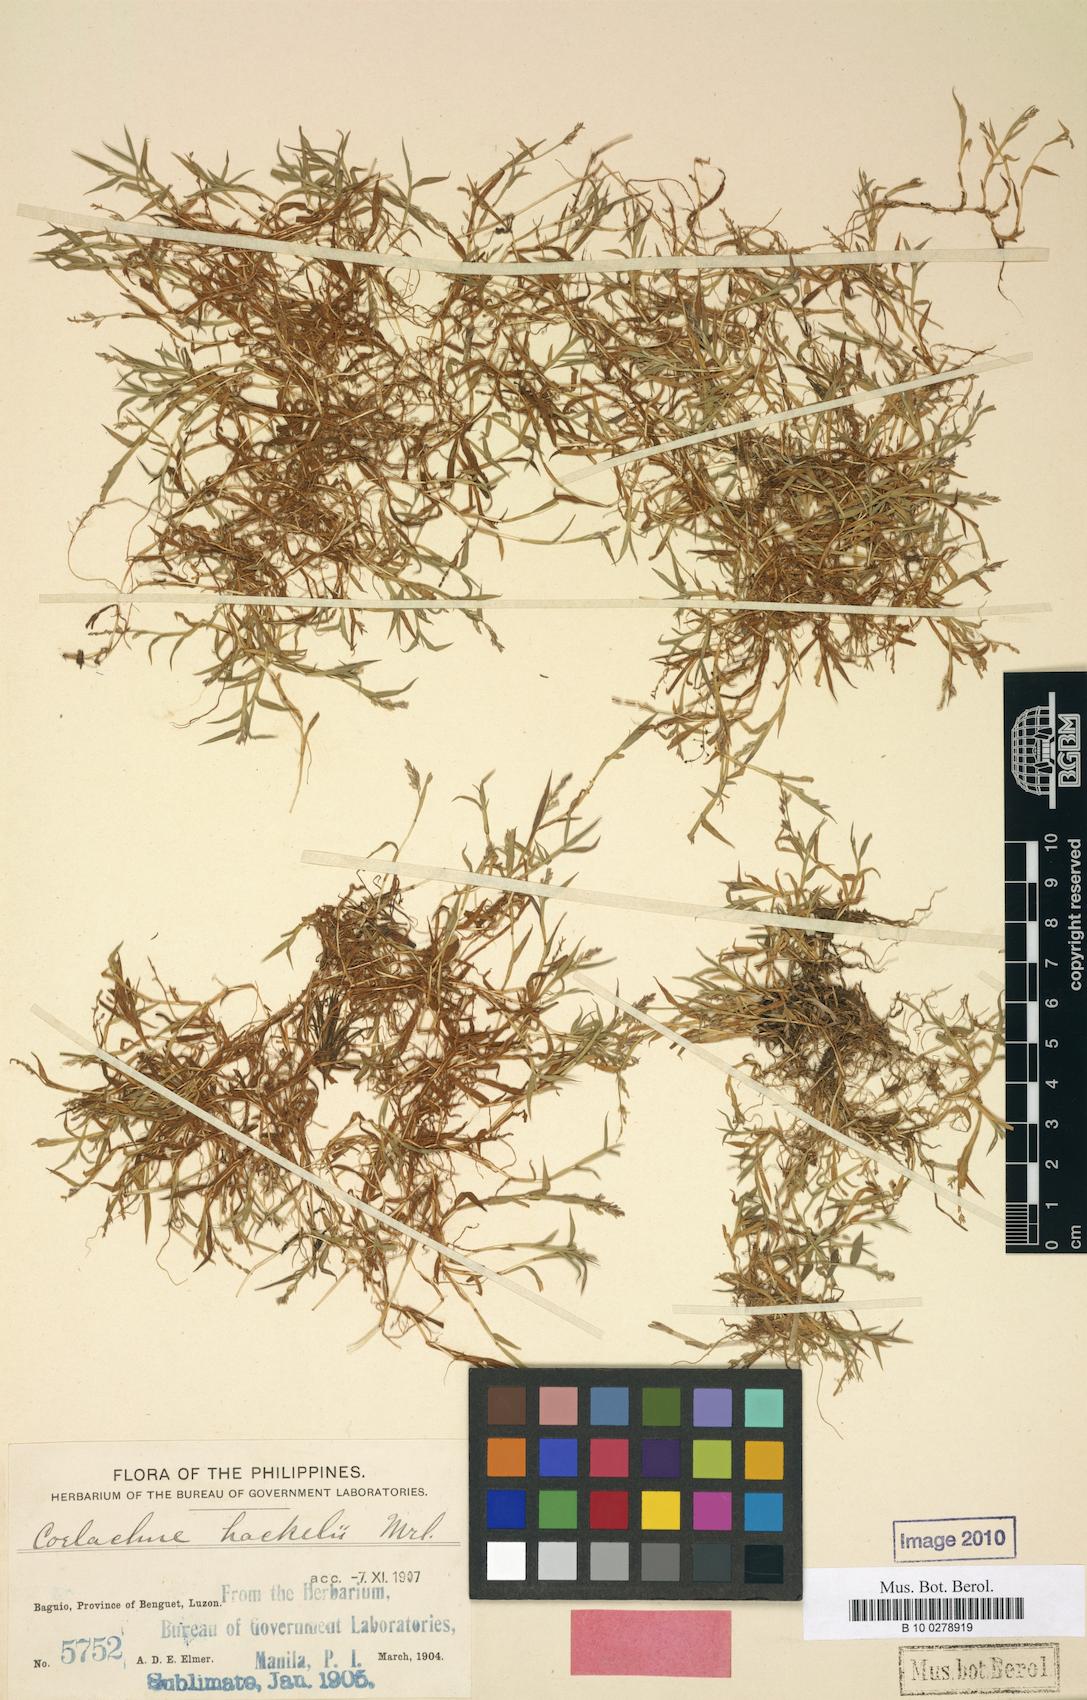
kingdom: Plantae
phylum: Tracheophyta
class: Liliopsida
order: Poales
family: Poaceae
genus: Coelachne
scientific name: Coelachne infirma
